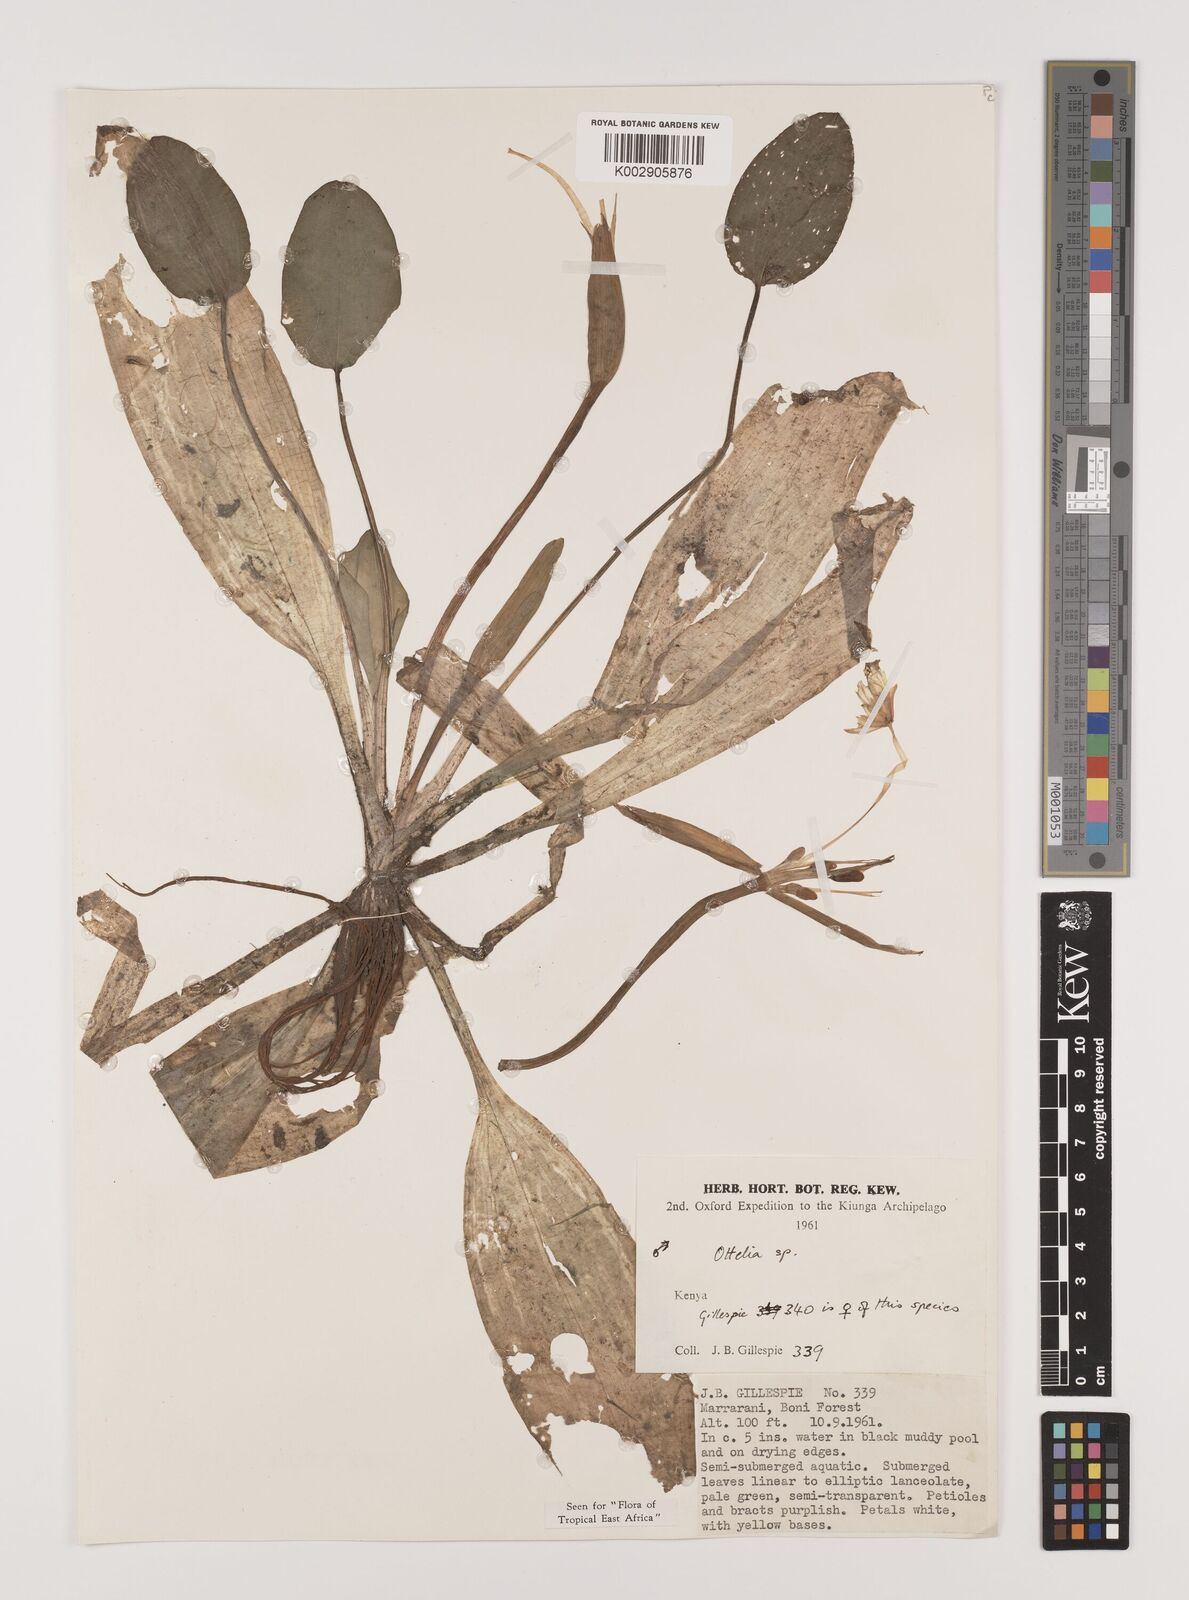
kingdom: Plantae
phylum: Tracheophyta
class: Liliopsida
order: Alismatales
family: Hydrocharitaceae
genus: Ottelia
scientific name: Ottelia exserta
